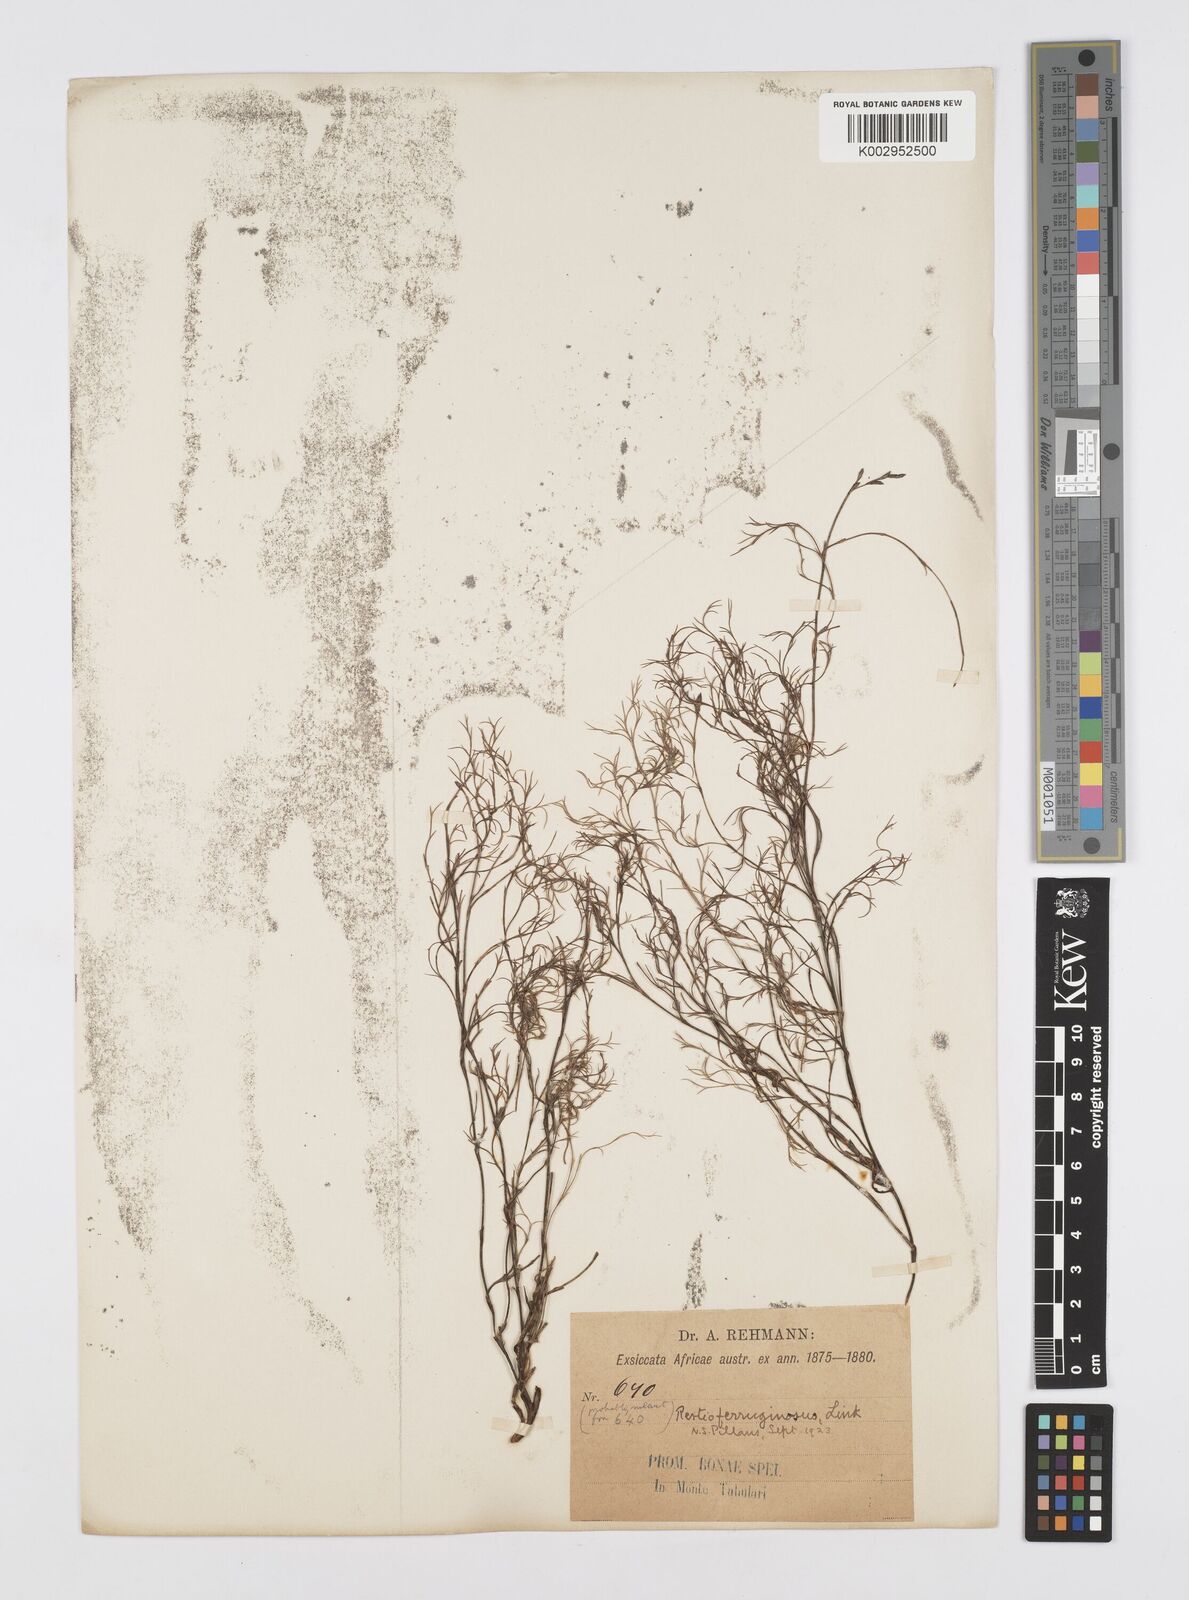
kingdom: Plantae
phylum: Tracheophyta
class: Liliopsida
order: Poales
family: Restionaceae
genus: Restio
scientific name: Restio gaudichaudianus
